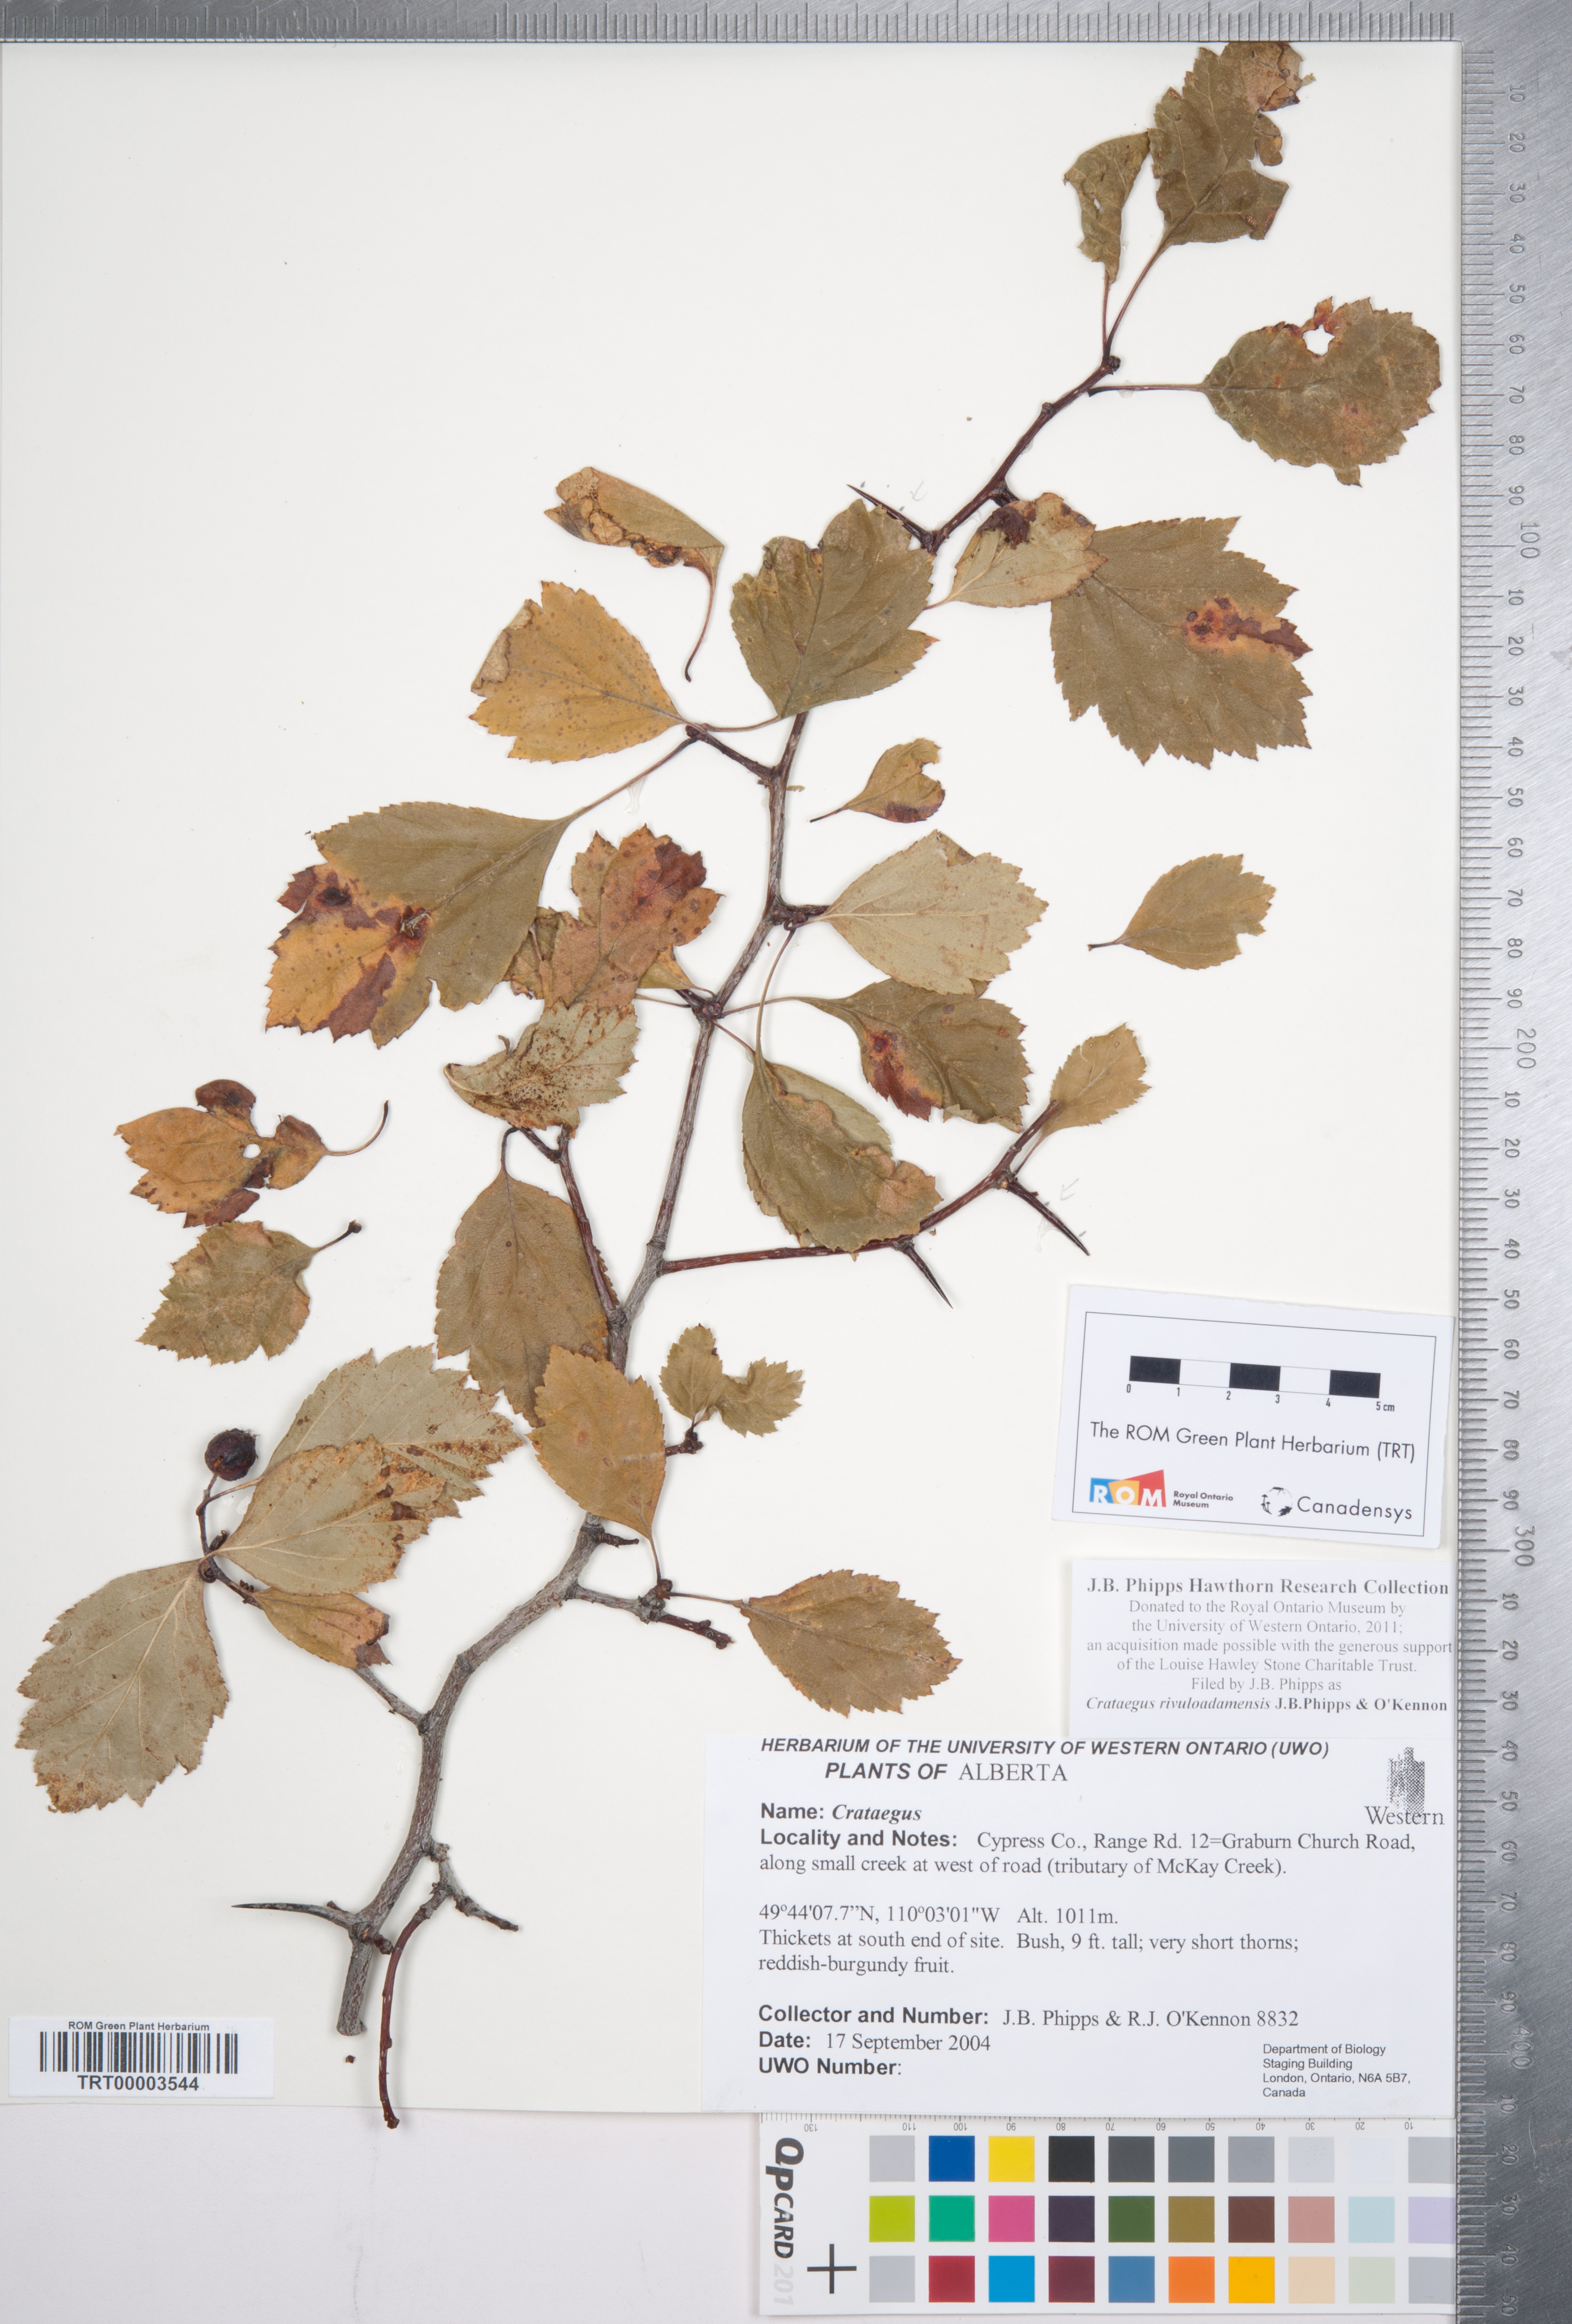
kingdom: Plantae
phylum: Tracheophyta
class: Magnoliopsida
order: Rosales
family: Rosaceae
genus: Crataegus
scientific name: Crataegus rivuloadamensis
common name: Adams creek hawthorn
